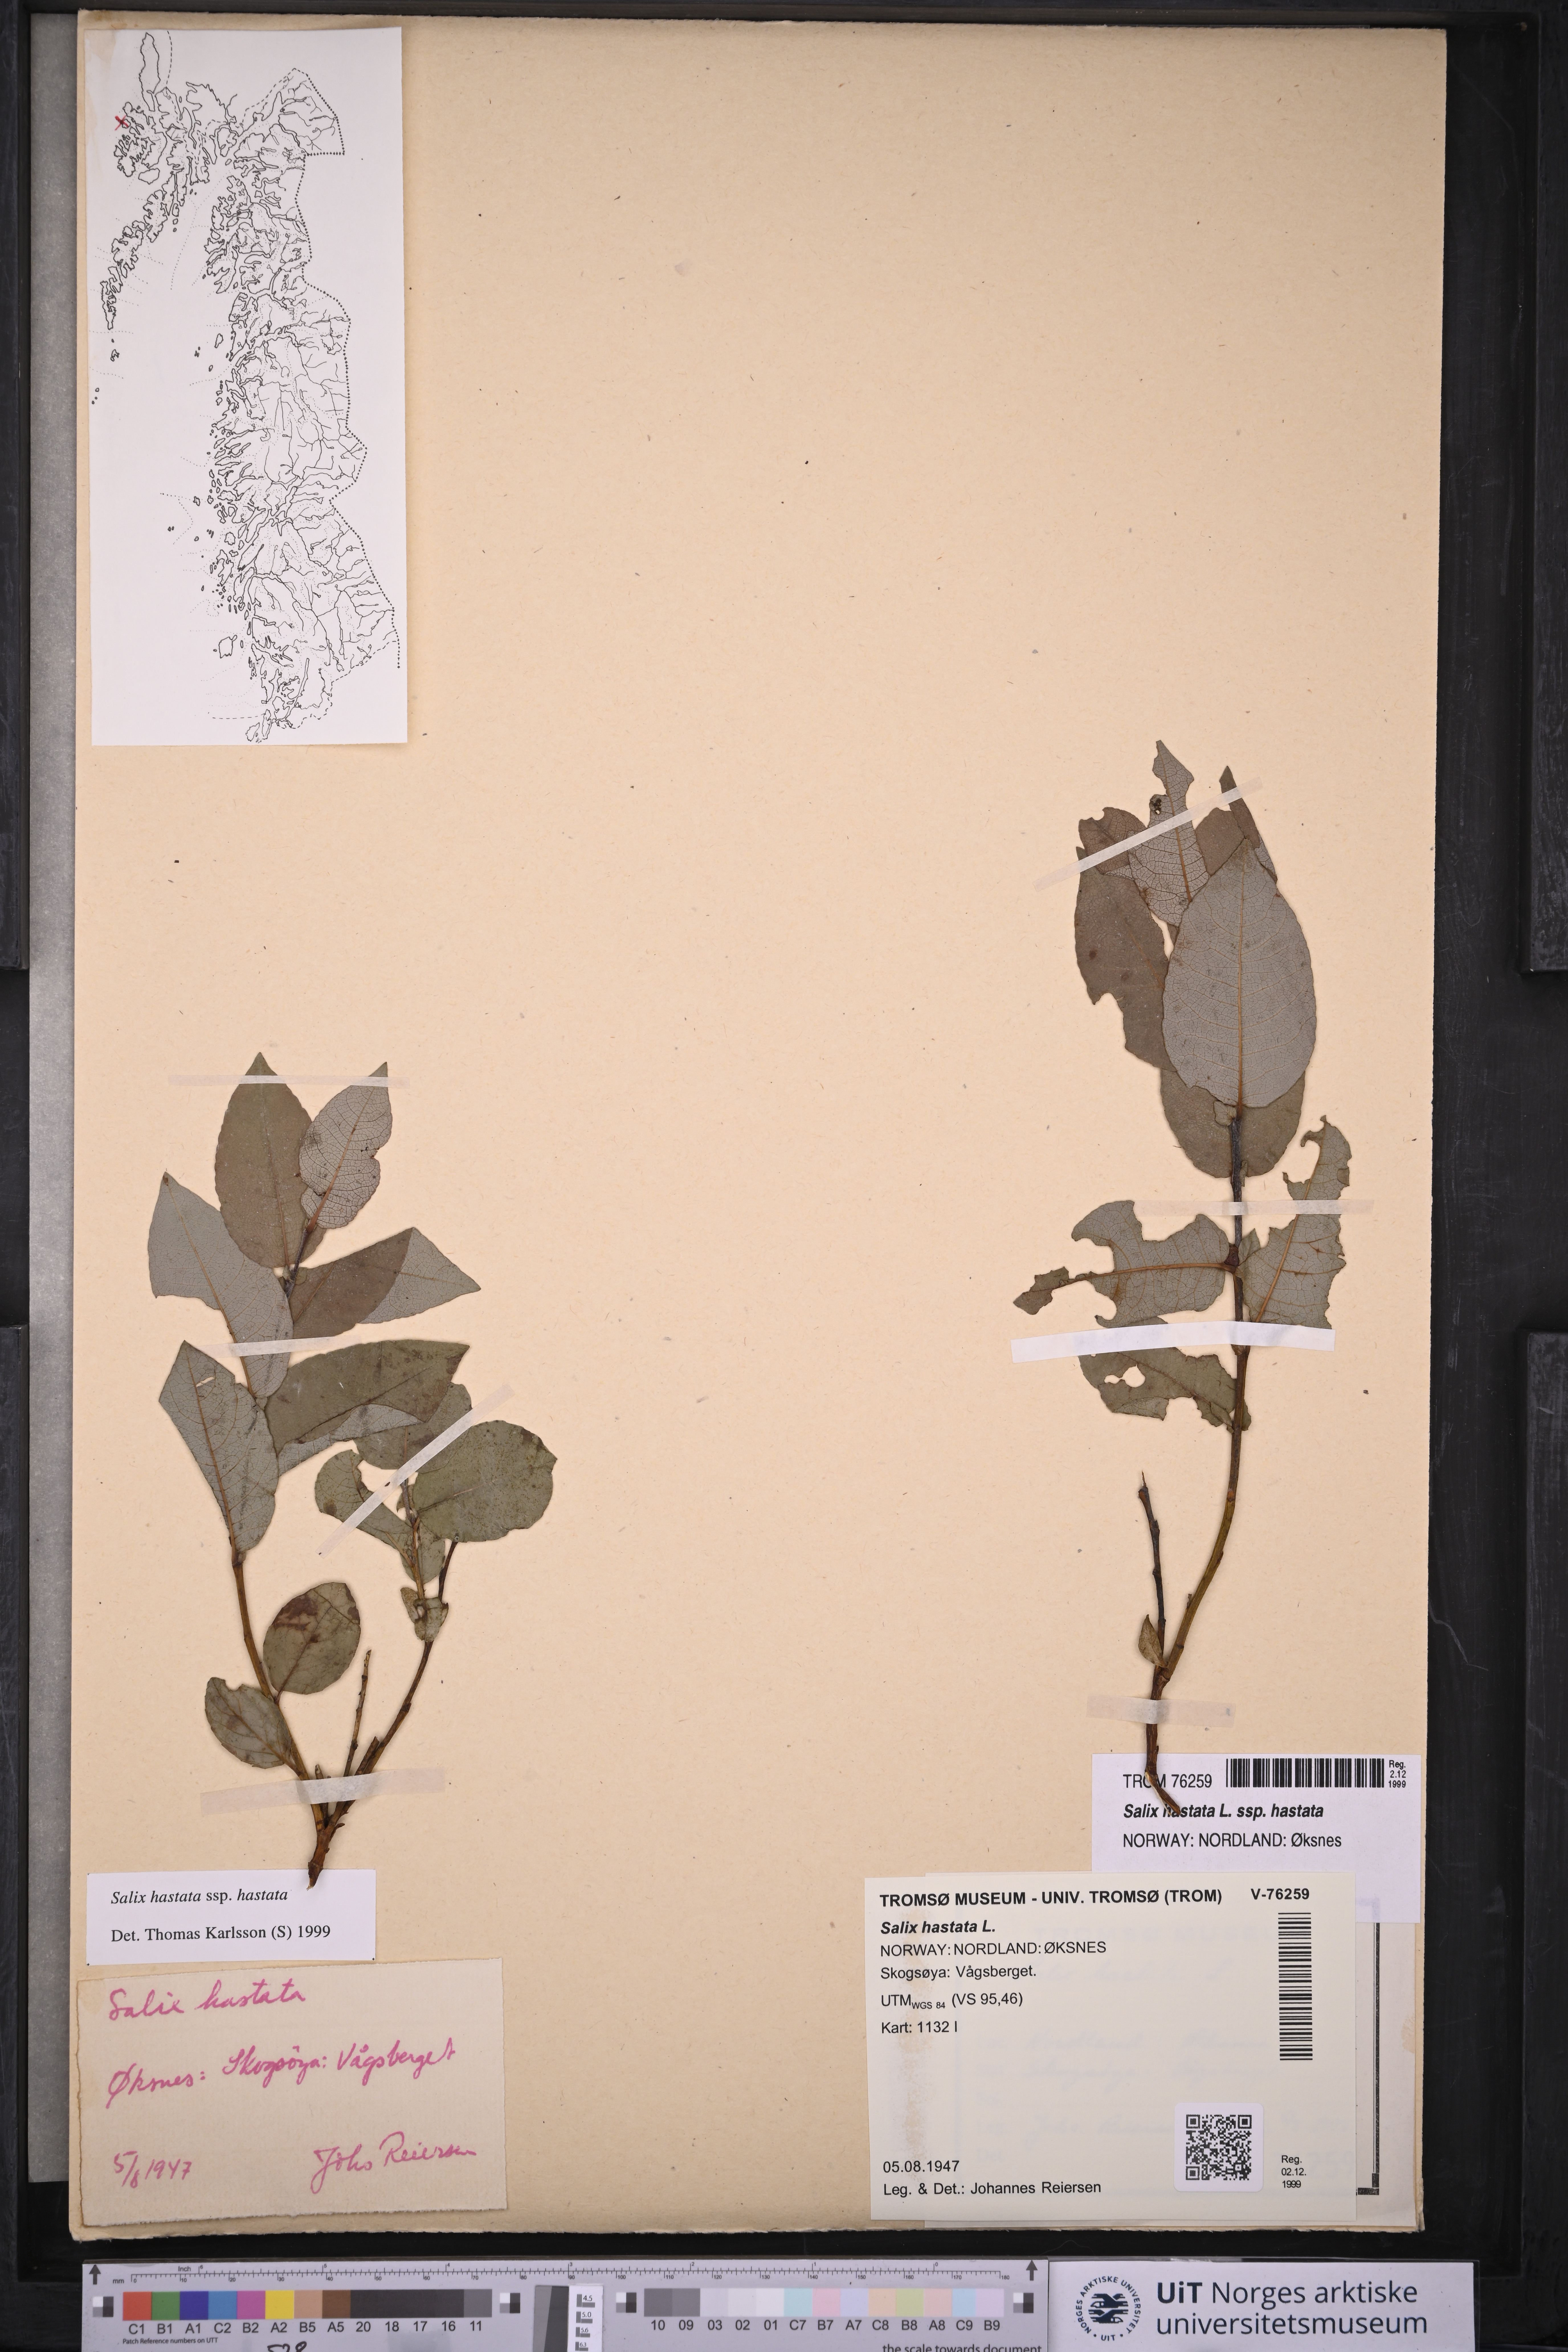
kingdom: Plantae
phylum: Tracheophyta
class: Magnoliopsida
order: Malpighiales
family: Salicaceae
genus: Salix
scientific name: Salix hastata
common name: Halberd willow
